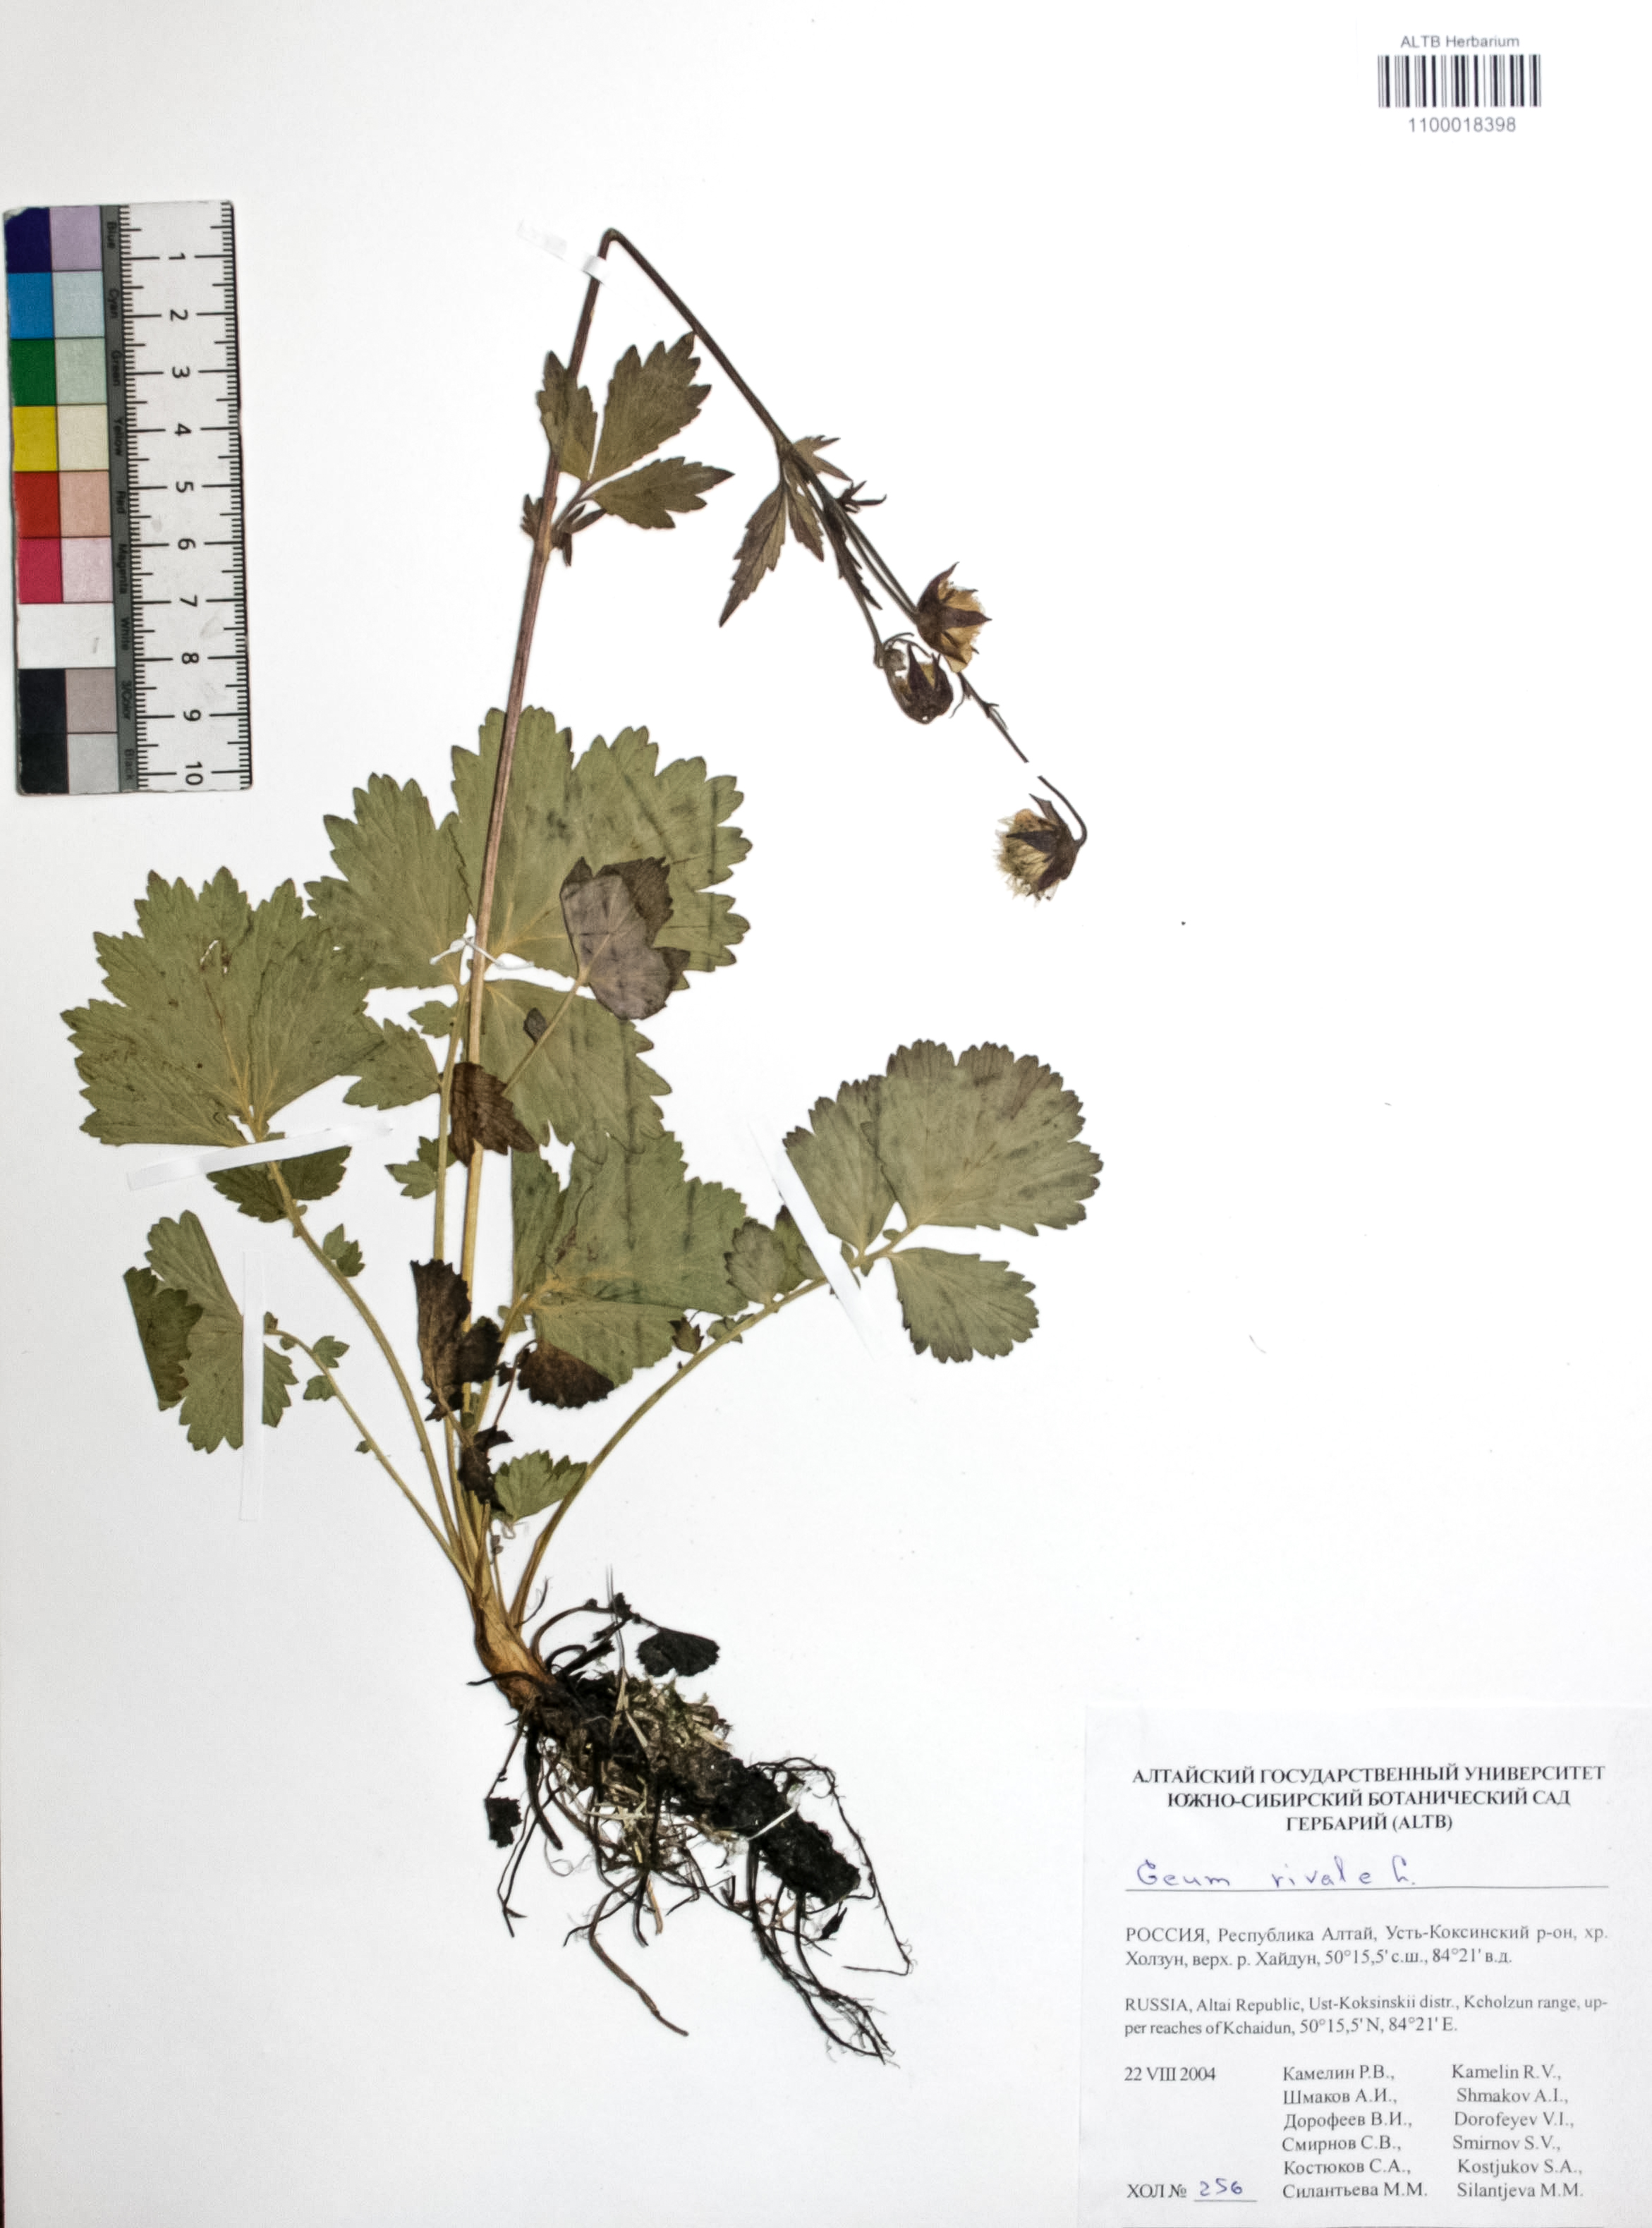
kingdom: Plantae
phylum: Tracheophyta
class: Magnoliopsida
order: Rosales
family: Rosaceae
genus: Geum
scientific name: Geum rivale
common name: Water avens
